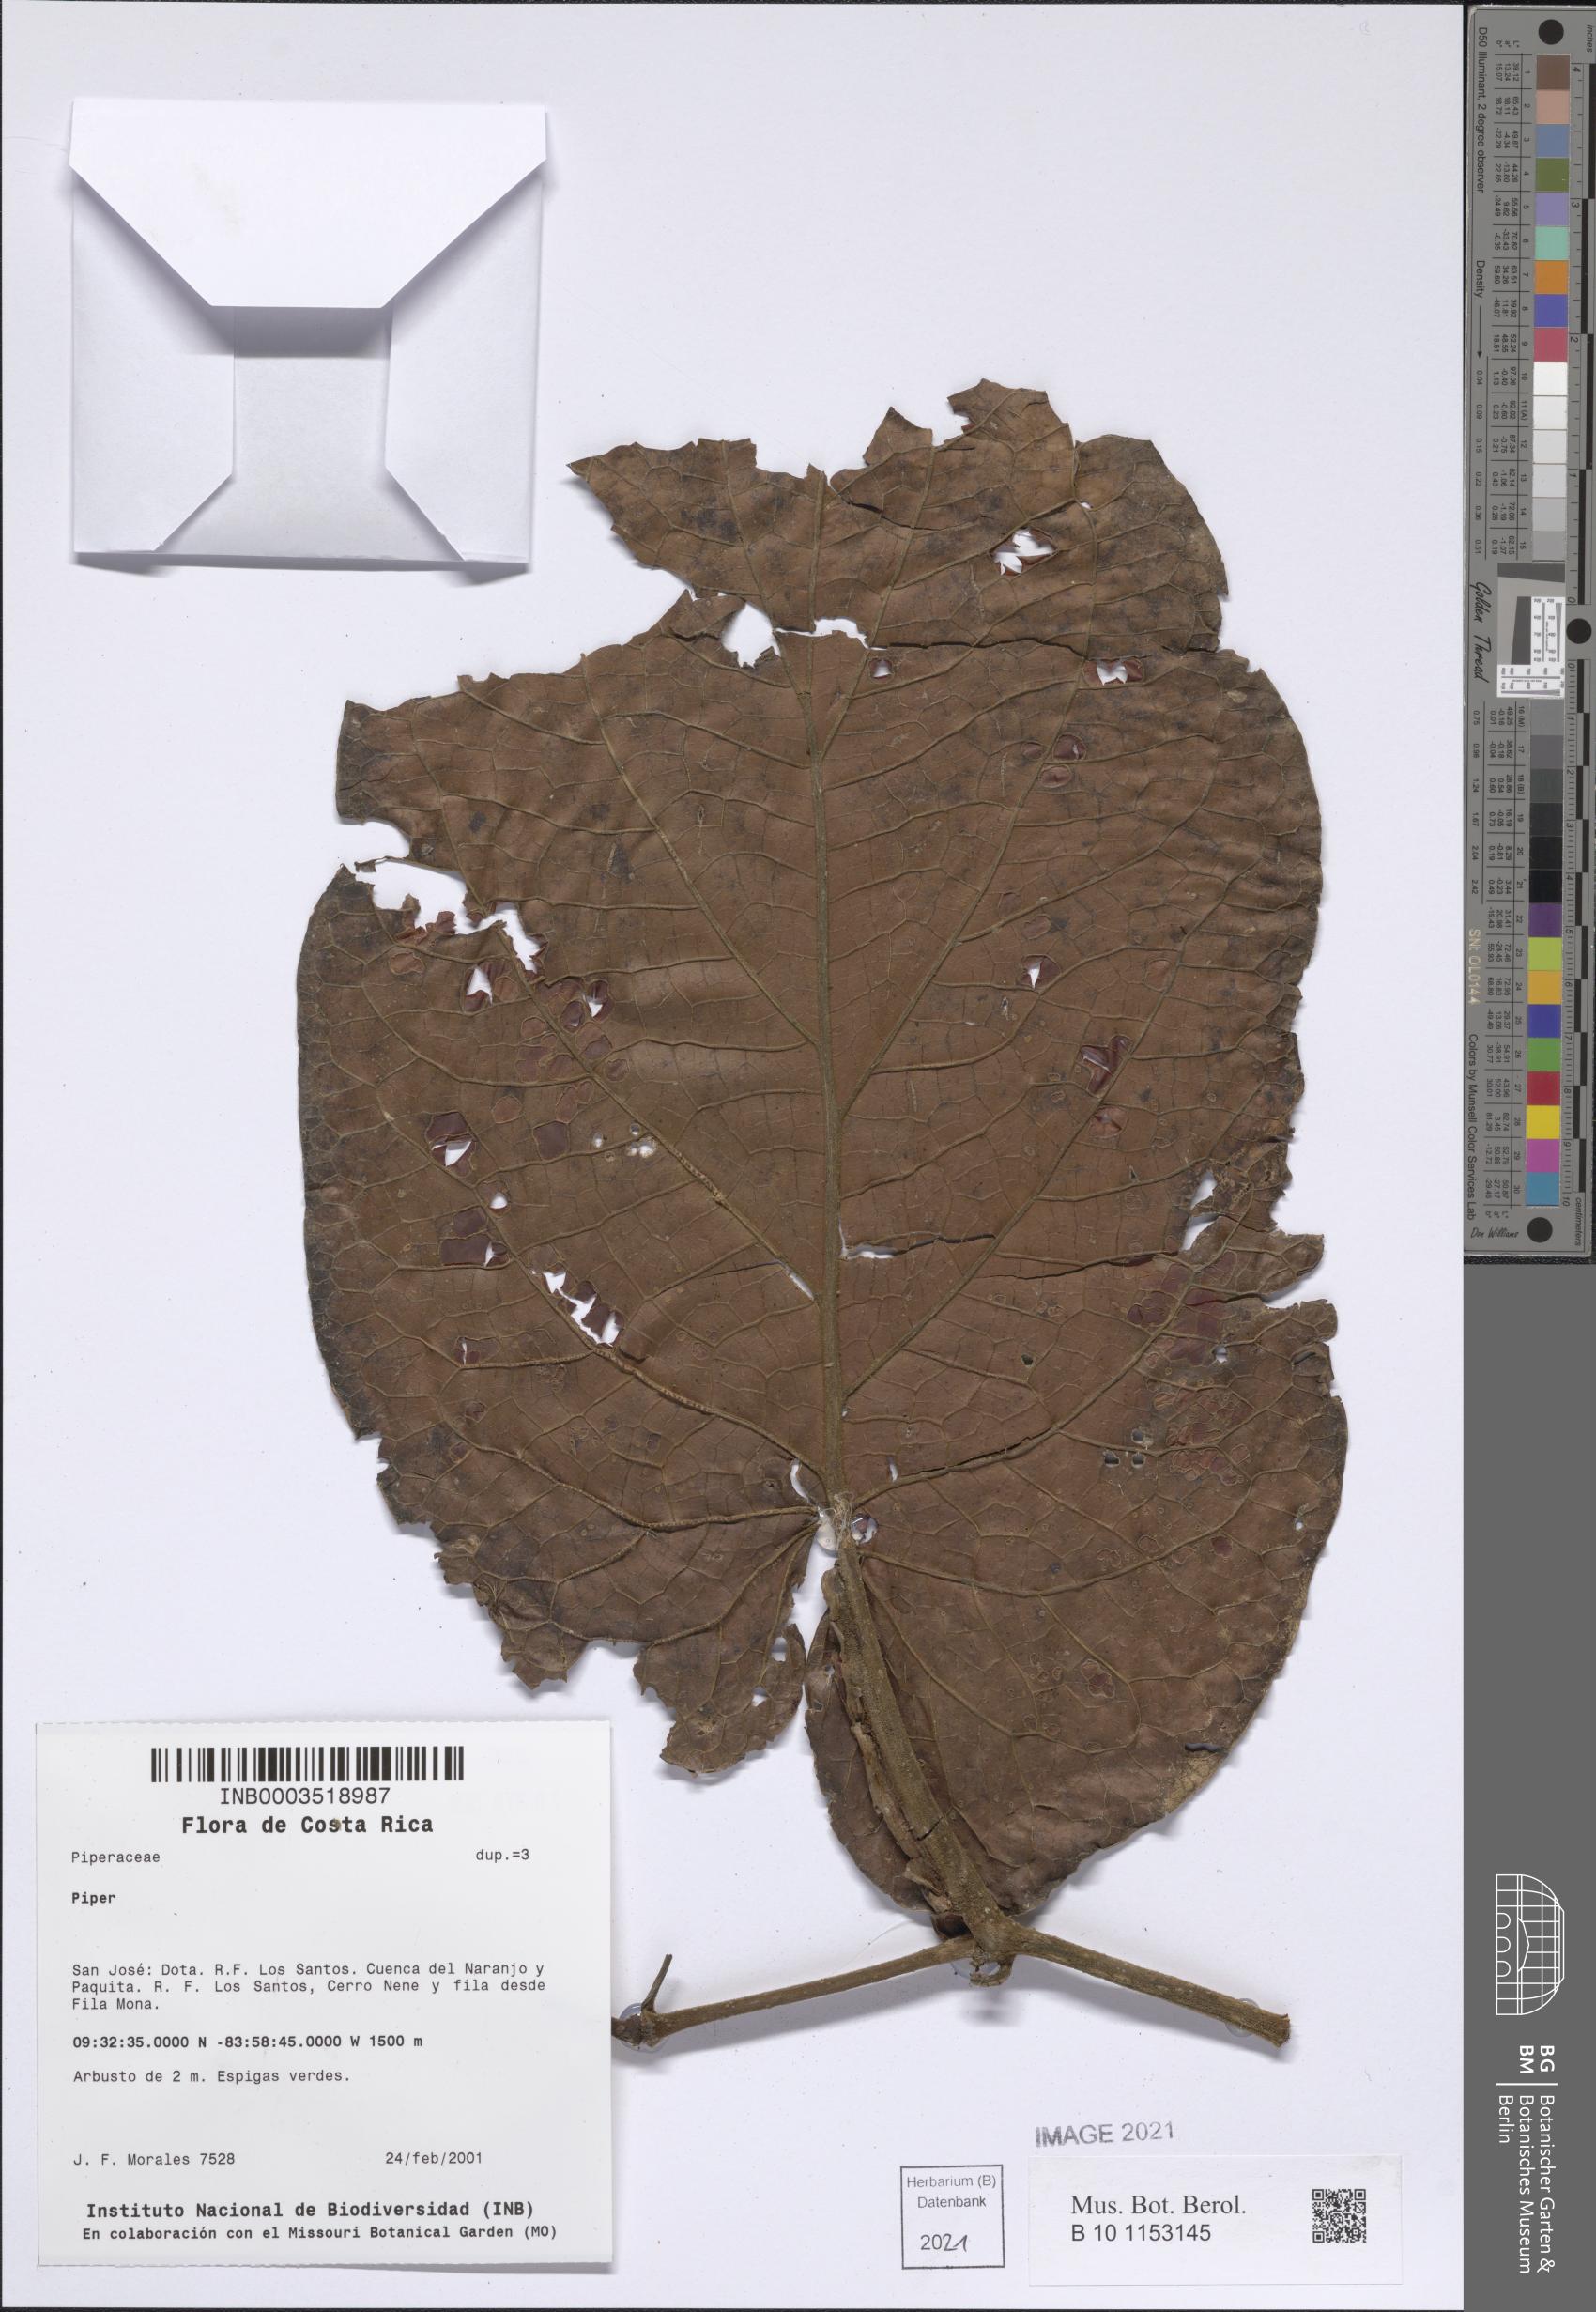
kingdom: Plantae
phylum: Tracheophyta
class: Magnoliopsida
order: Piperales
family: Piperaceae
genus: Piper
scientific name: Piper
